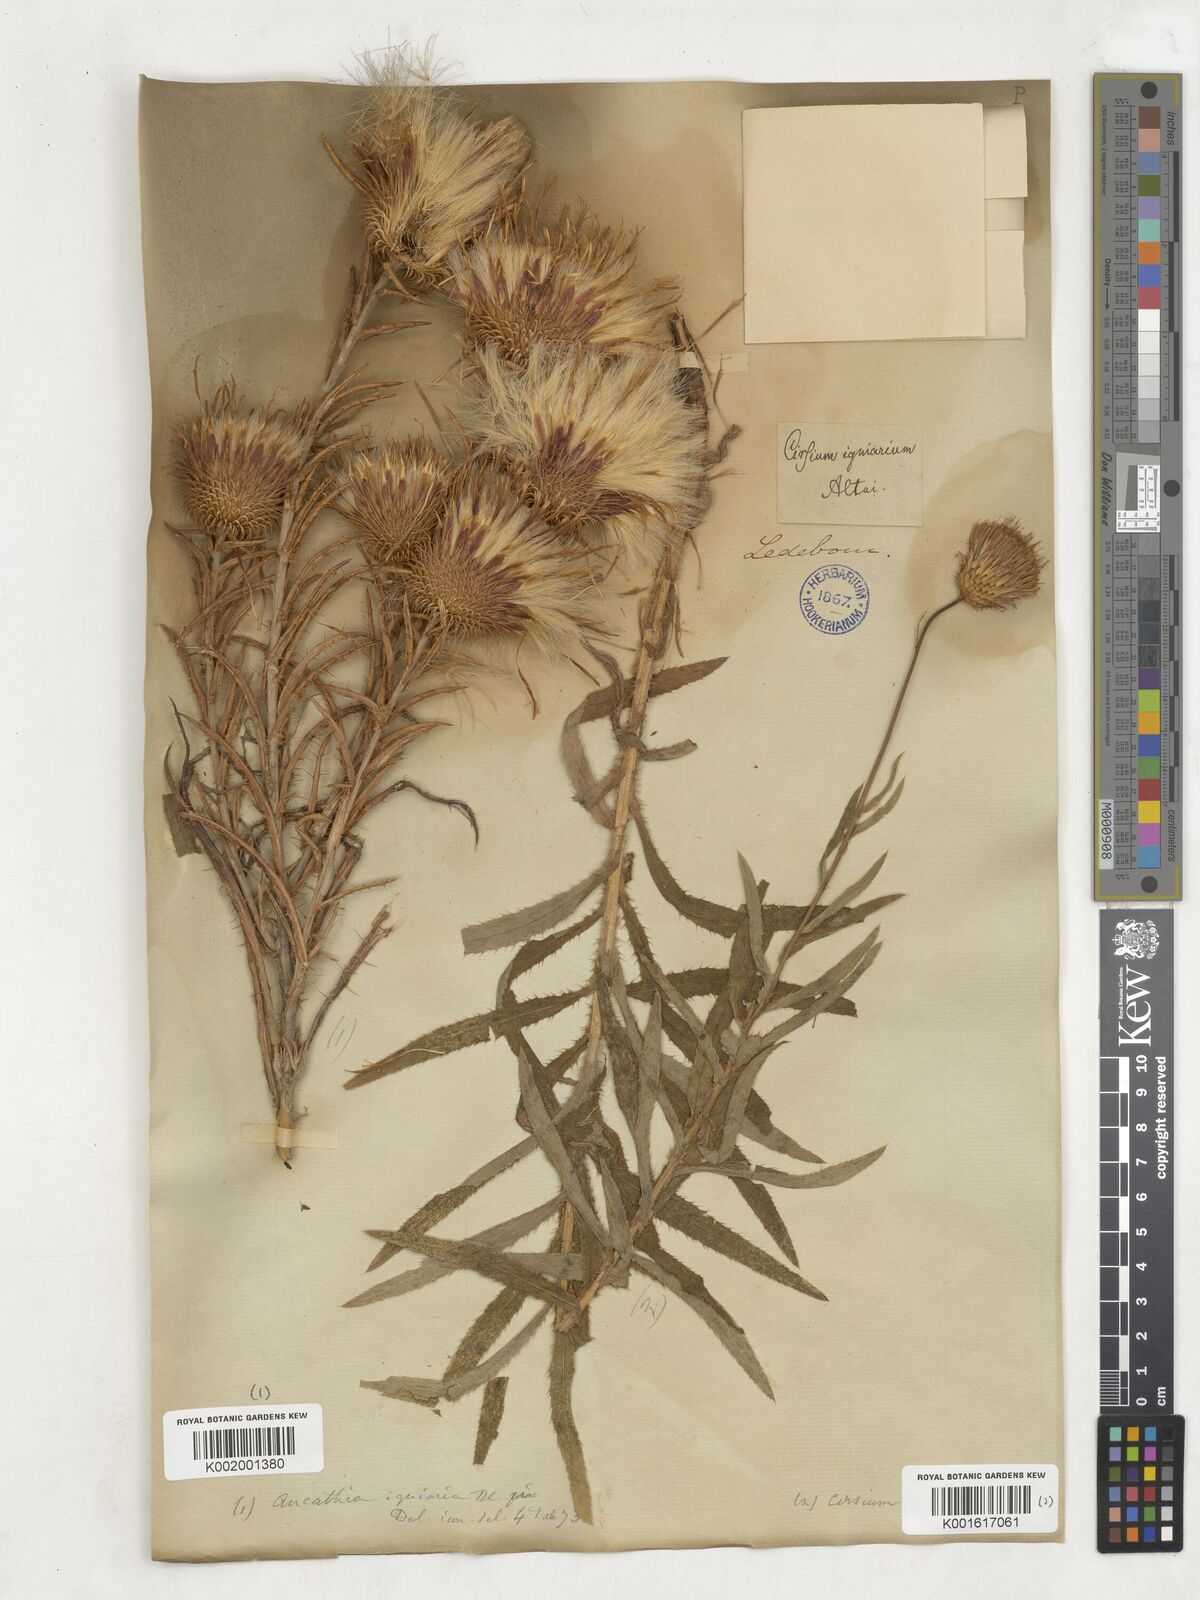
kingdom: Plantae
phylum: Tracheophyta
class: Magnoliopsida
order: Asterales
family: Asteraceae
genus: Cirsium
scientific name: Cirsium
